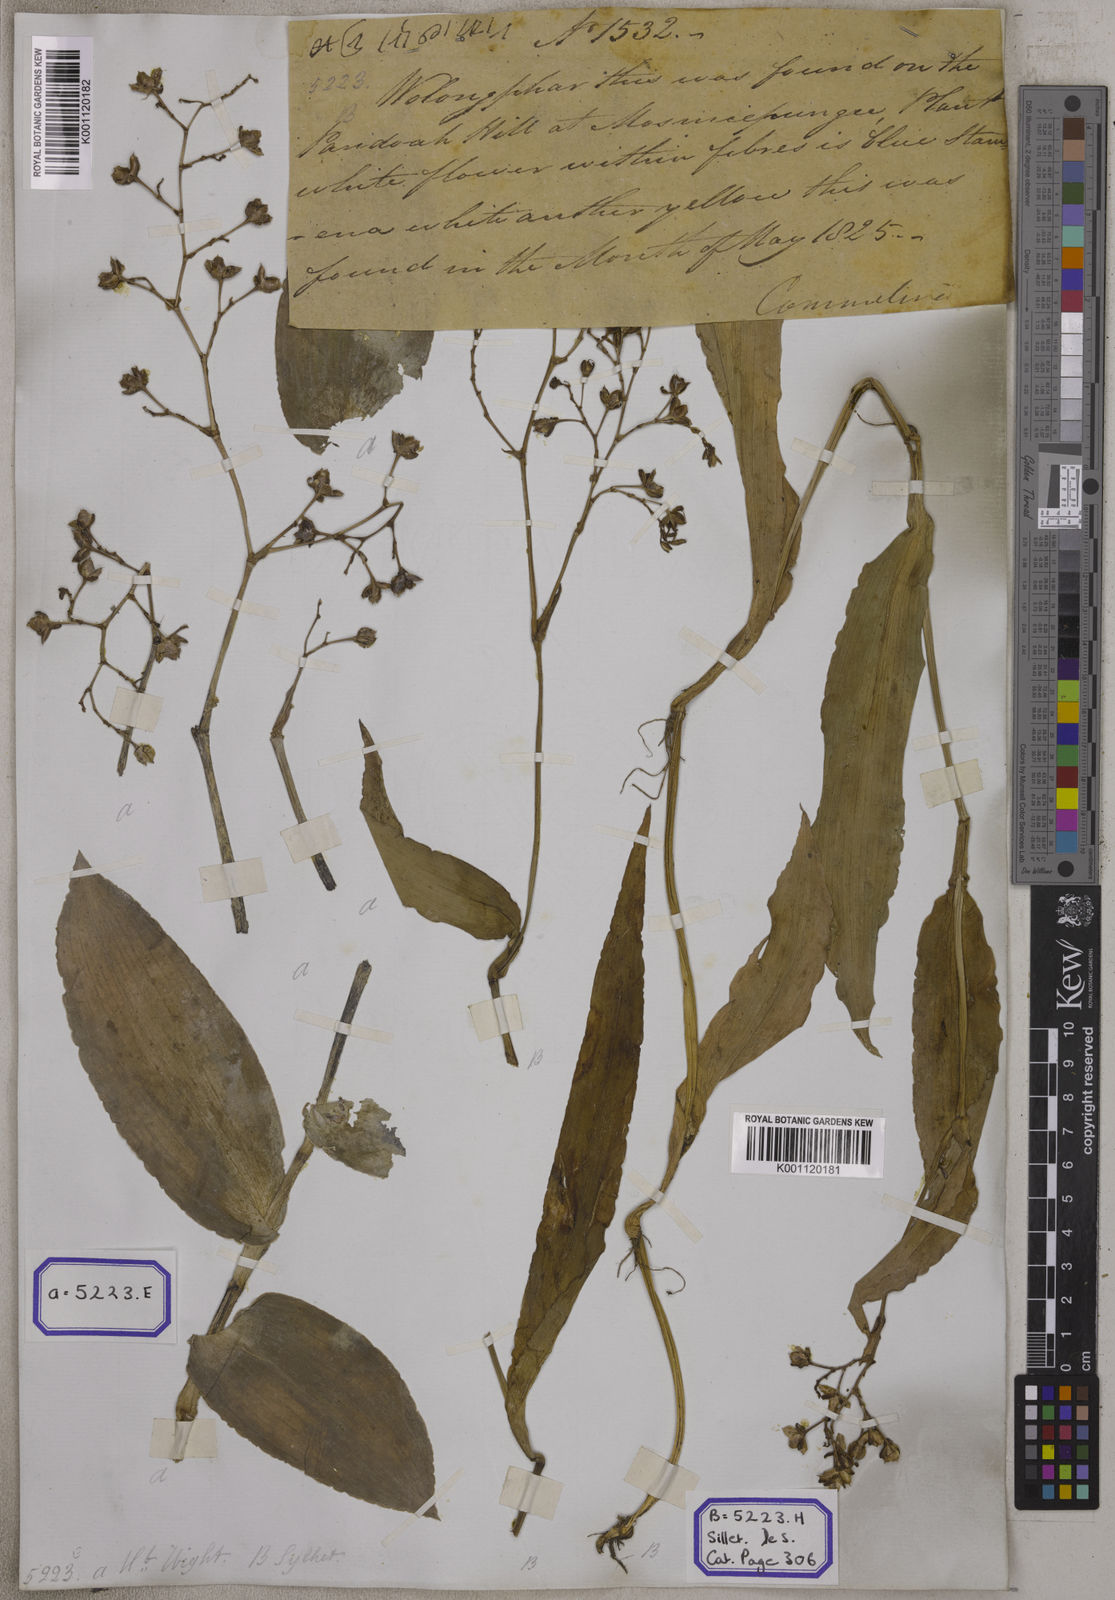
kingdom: Plantae
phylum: Tracheophyta
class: Liliopsida
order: Commelinales
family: Commelinaceae
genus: Murdannia
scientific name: Murdannia japonica
